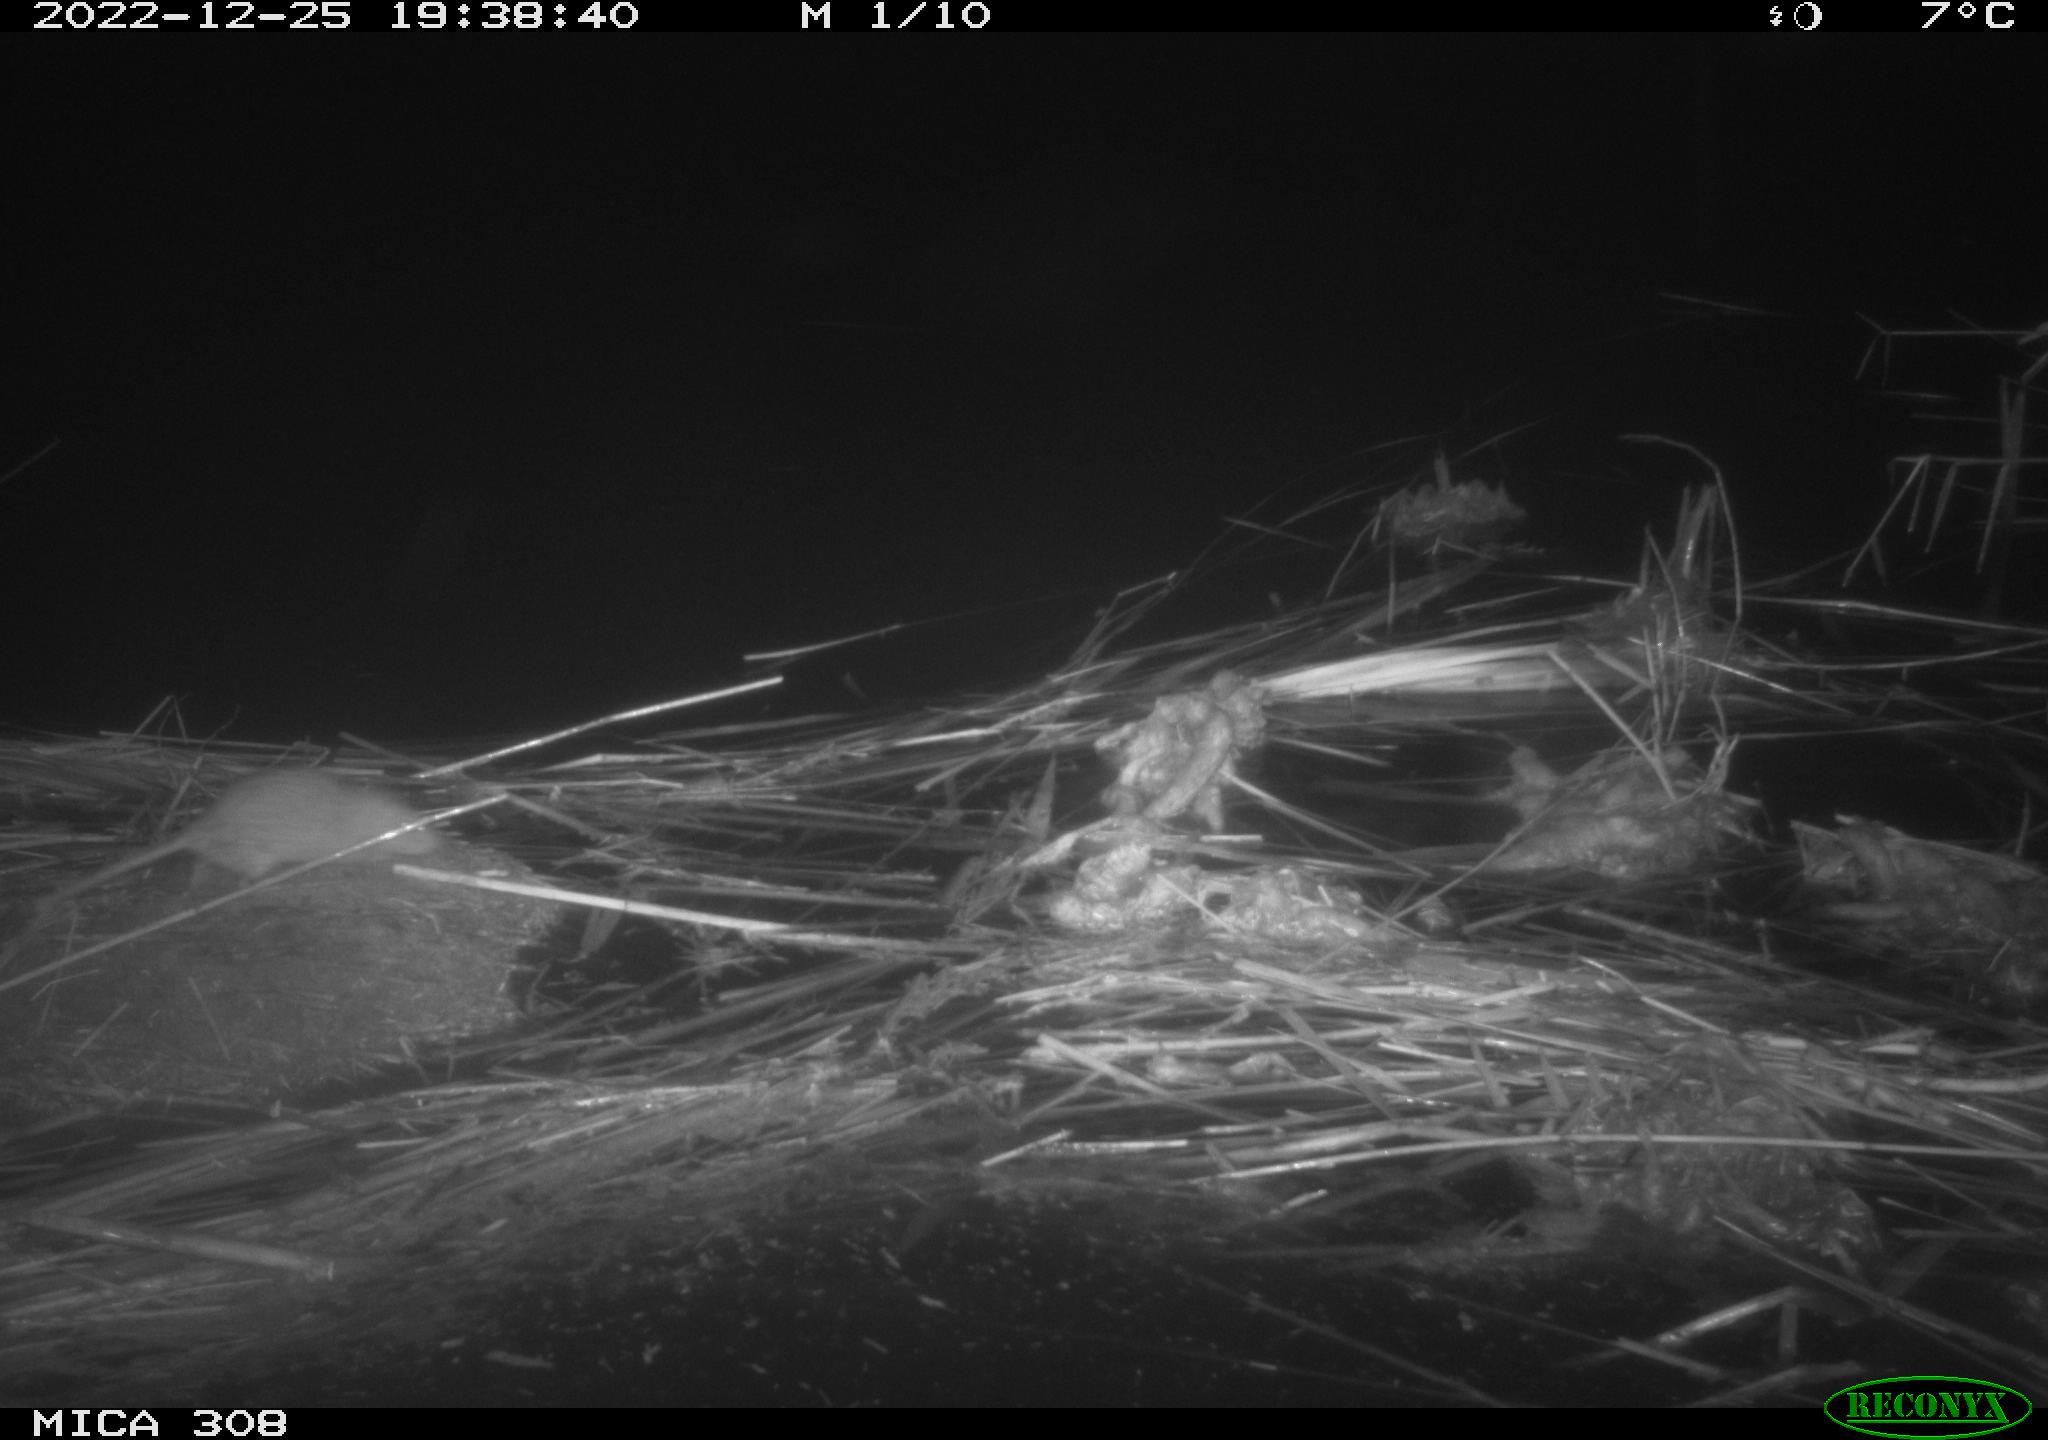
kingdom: Animalia
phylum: Chordata
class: Mammalia
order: Rodentia
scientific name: Rodentia
